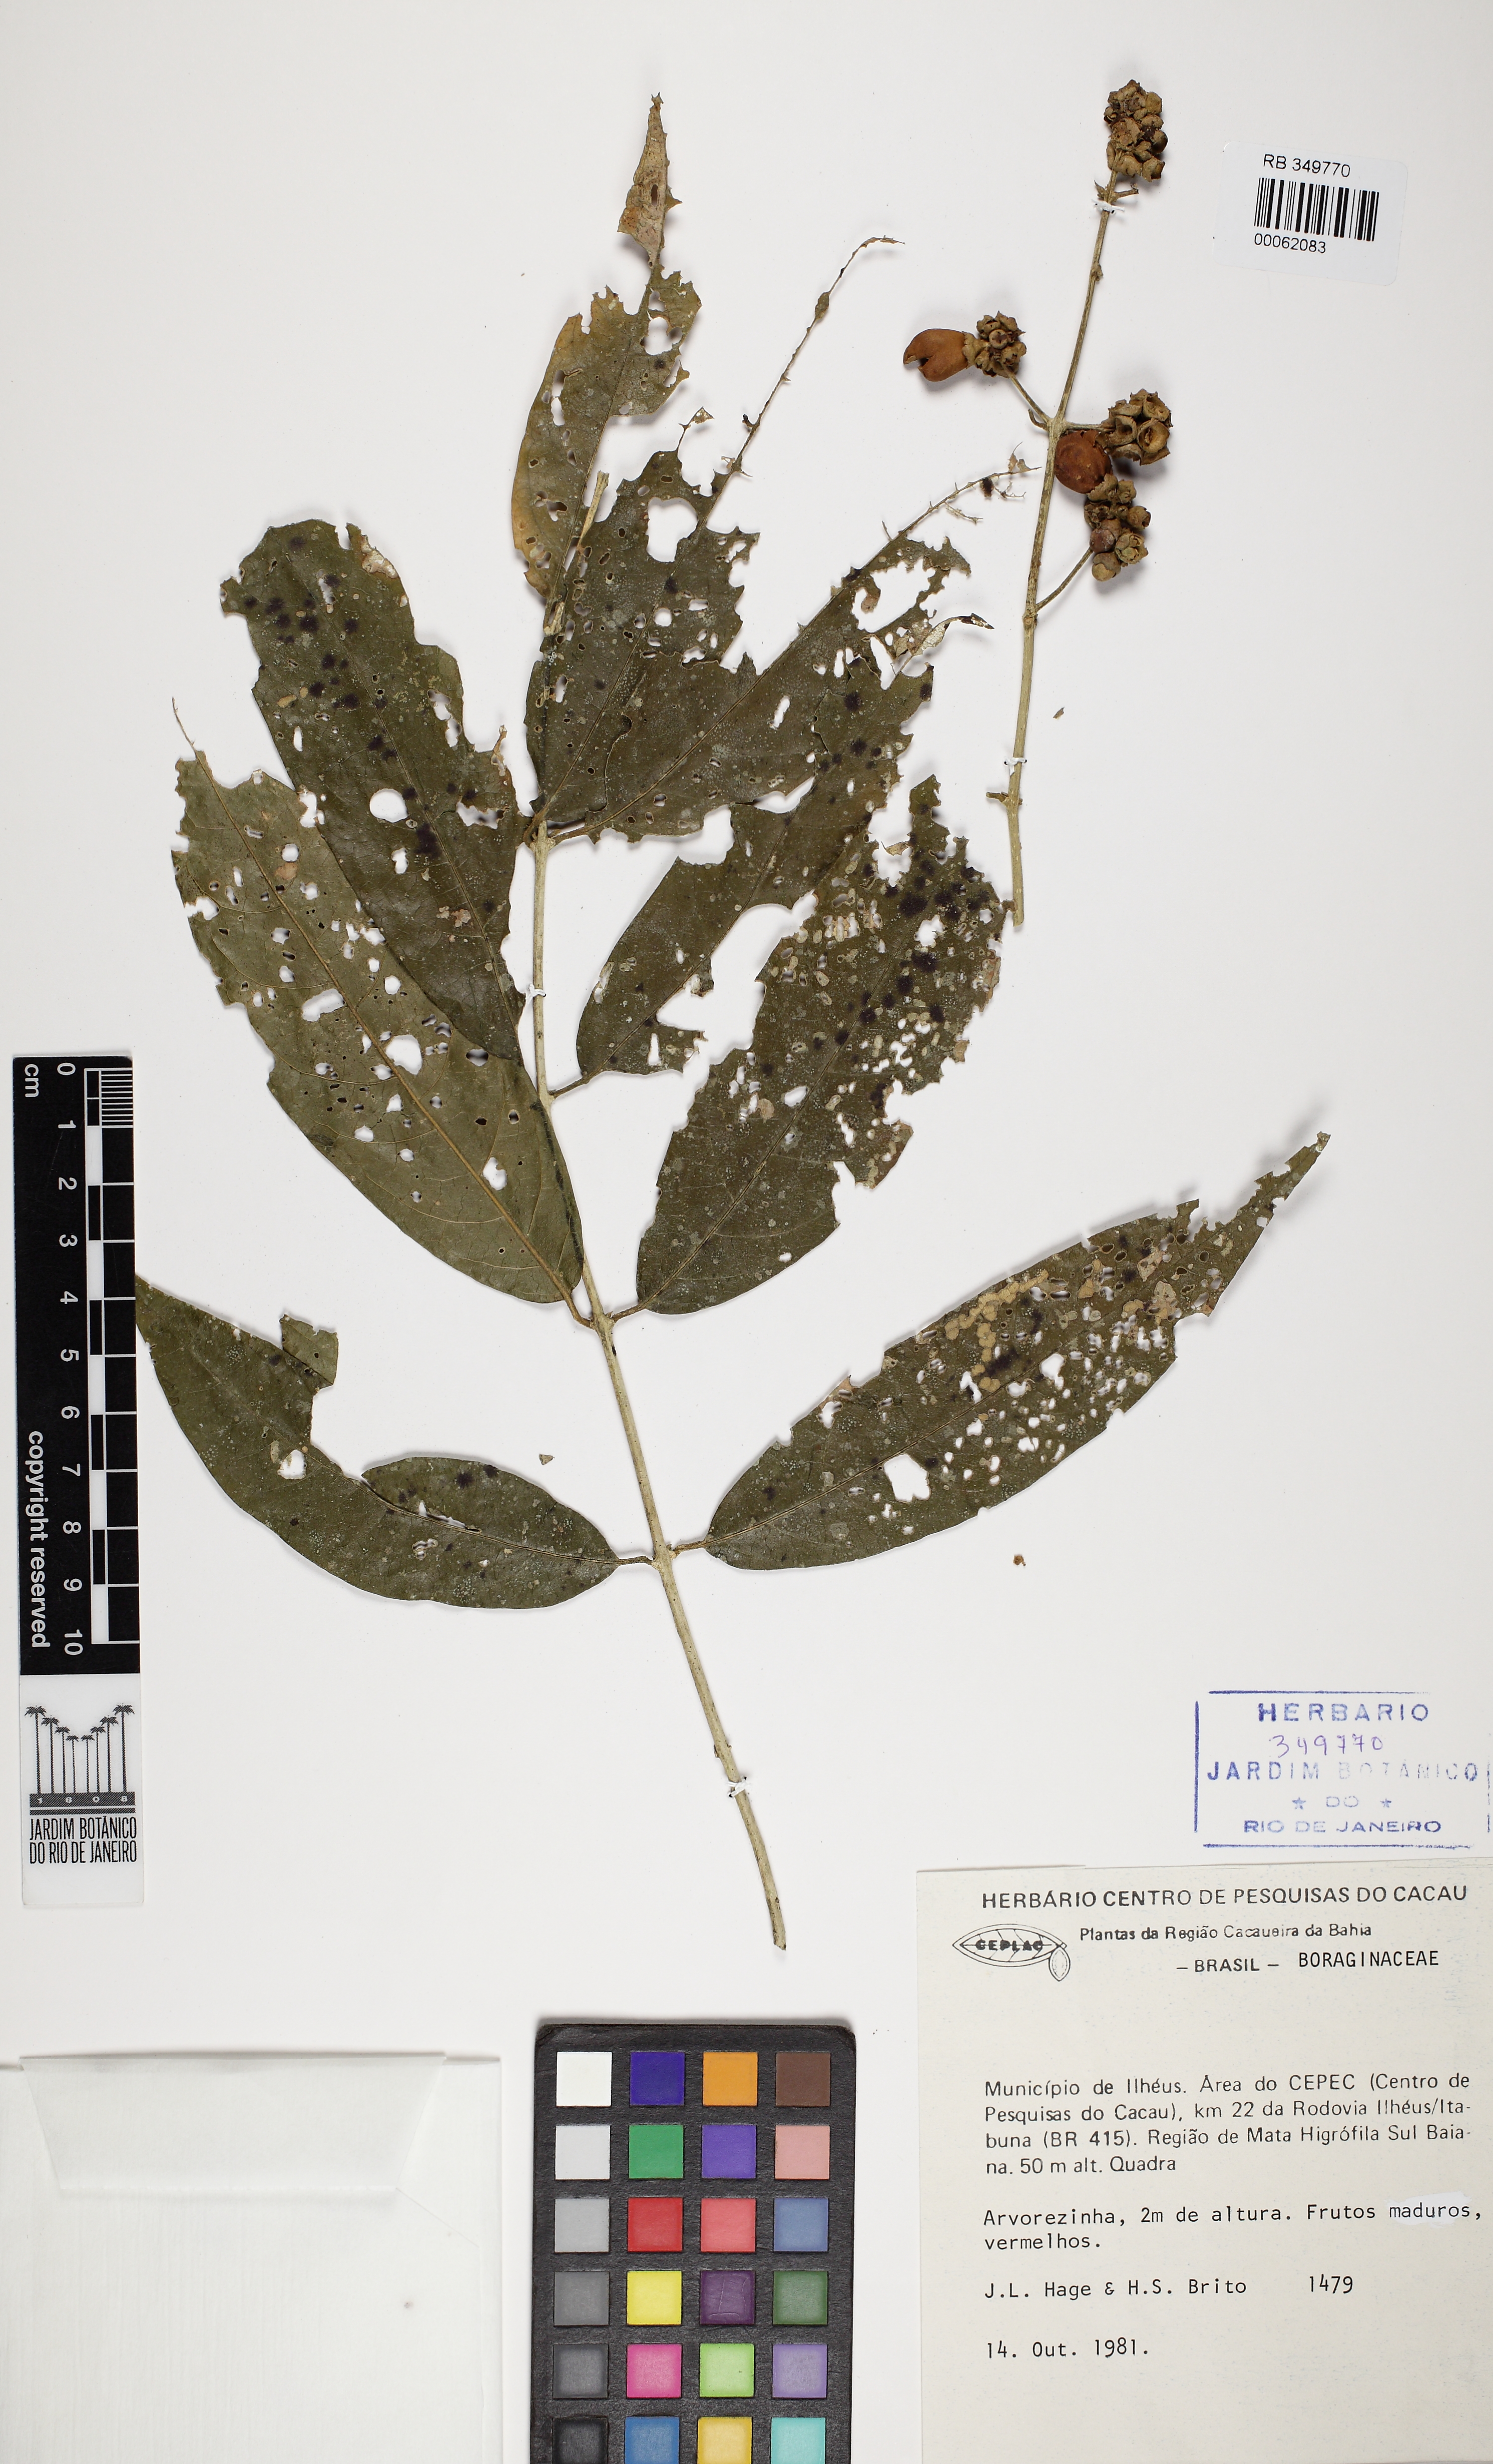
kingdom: Plantae
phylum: Tracheophyta
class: Magnoliopsida
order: Boraginales
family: Boraginaceae
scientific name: Boraginaceae
